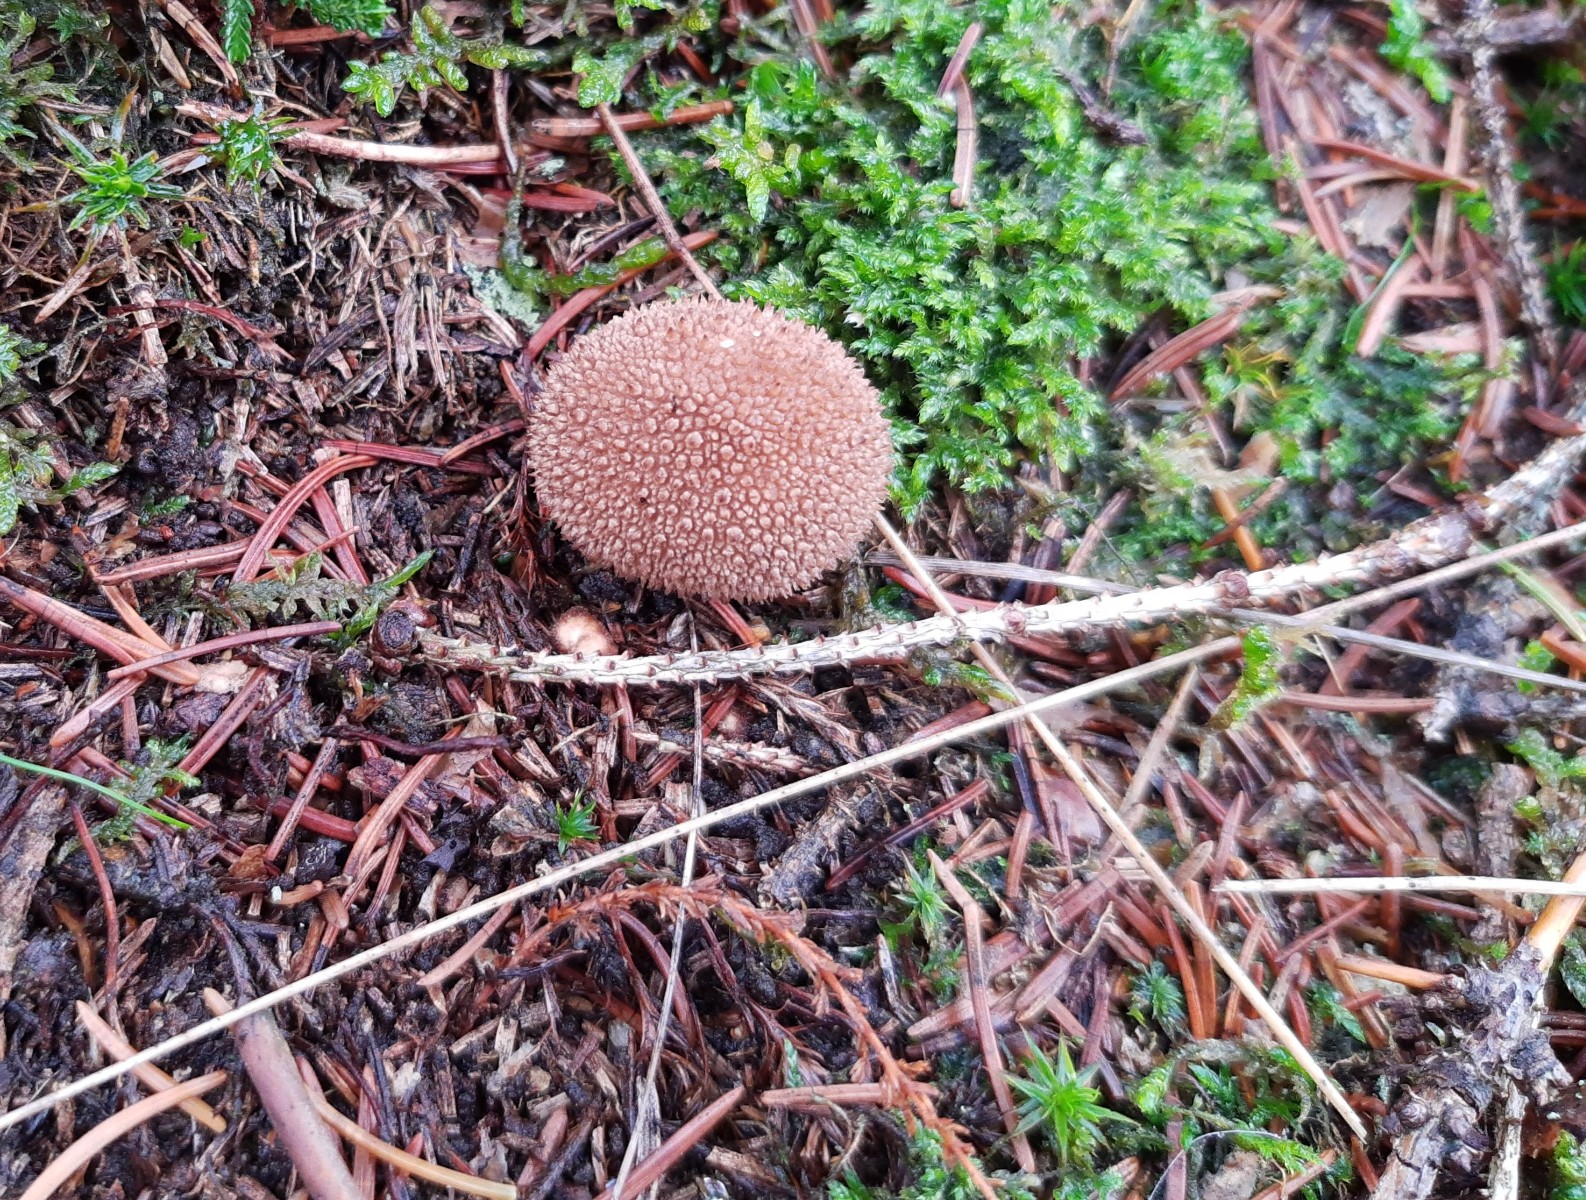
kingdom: Fungi
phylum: Basidiomycota
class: Agaricomycetes
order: Agaricales
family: Lycoperdaceae
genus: Lycoperdon
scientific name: Lycoperdon nigrescens
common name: sortagtig støvbold
